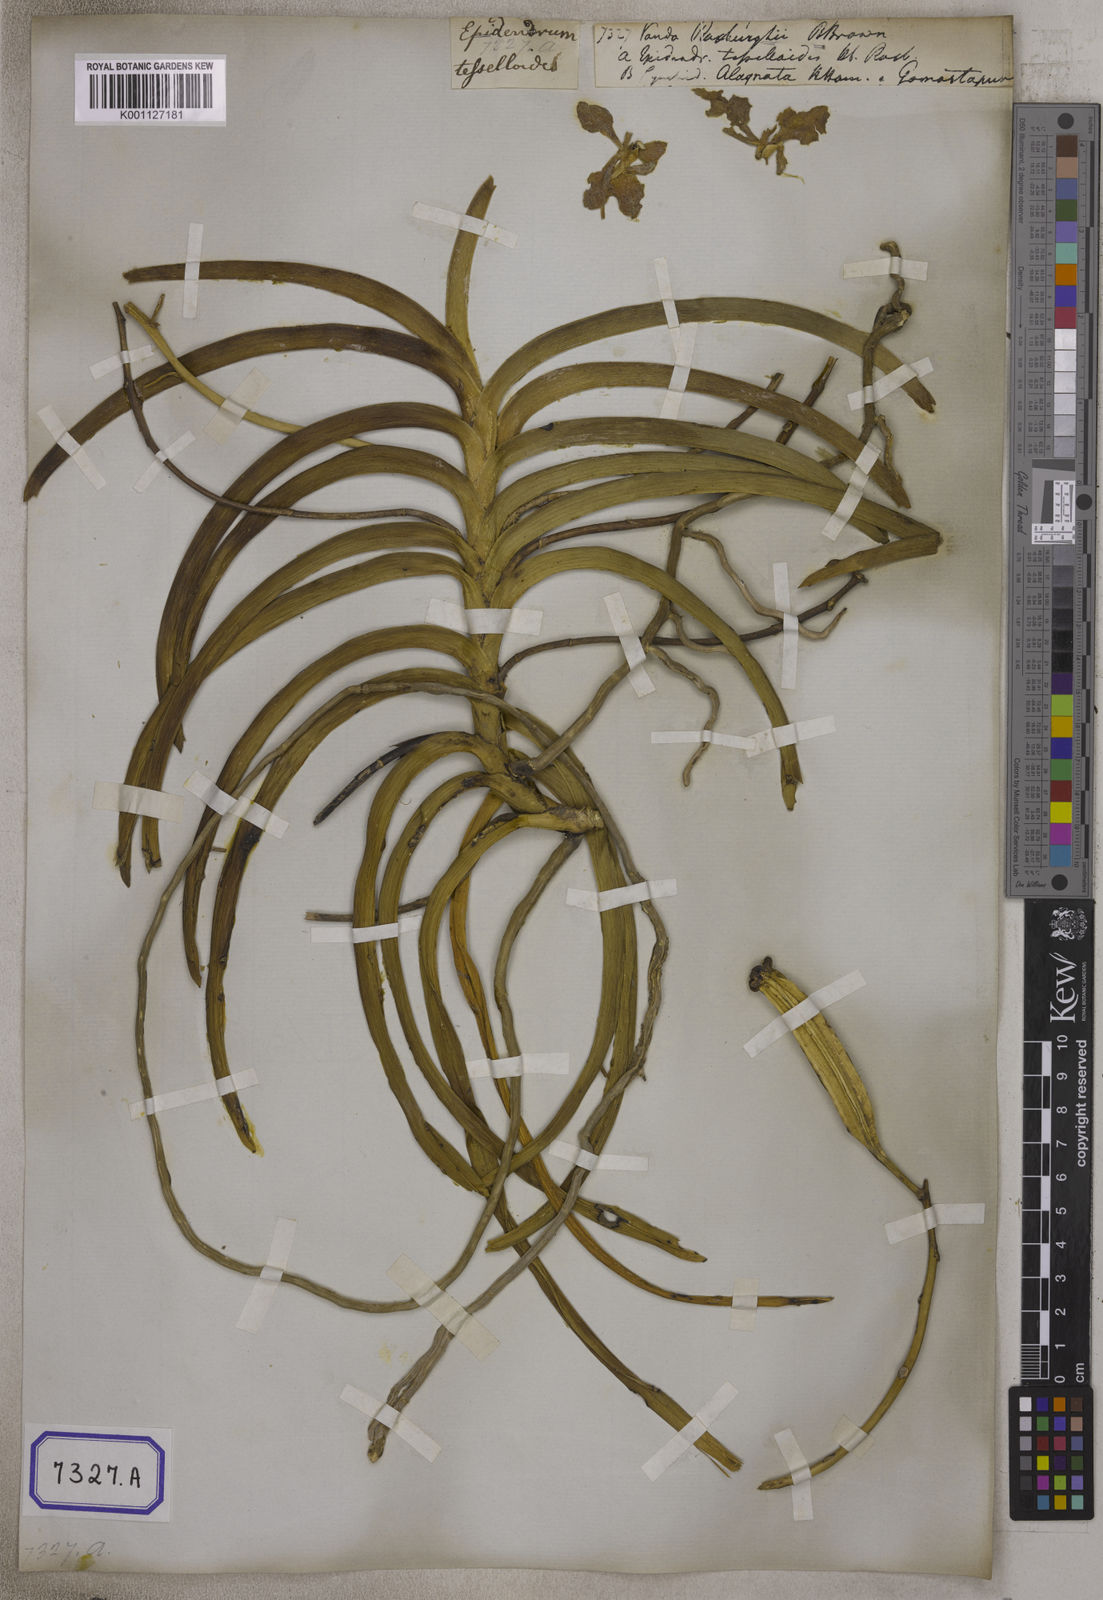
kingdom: Plantae
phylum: Tracheophyta
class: Liliopsida
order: Asparagales
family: Orchidaceae
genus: Vanda
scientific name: Vanda tessellata
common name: Grey orchid
